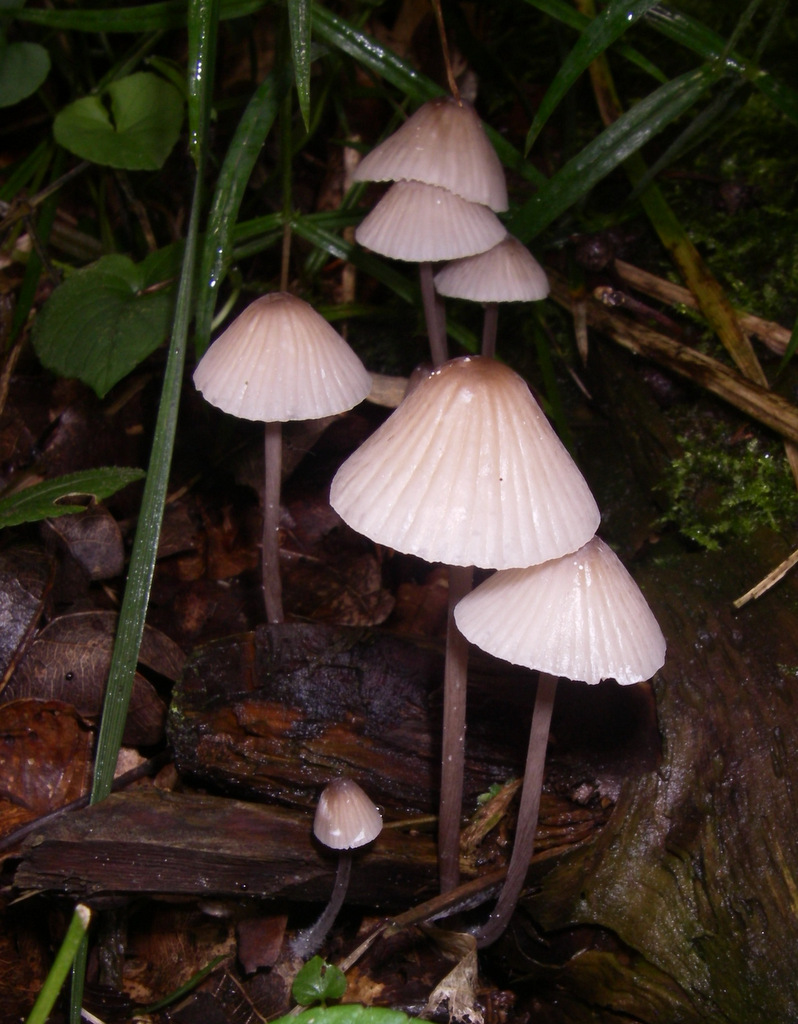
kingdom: Fungi
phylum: Basidiomycota
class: Agaricomycetes
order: Agaricales
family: Mycenaceae
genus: Mycena
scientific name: Mycena galopus
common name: hvidmælket huesvamp
